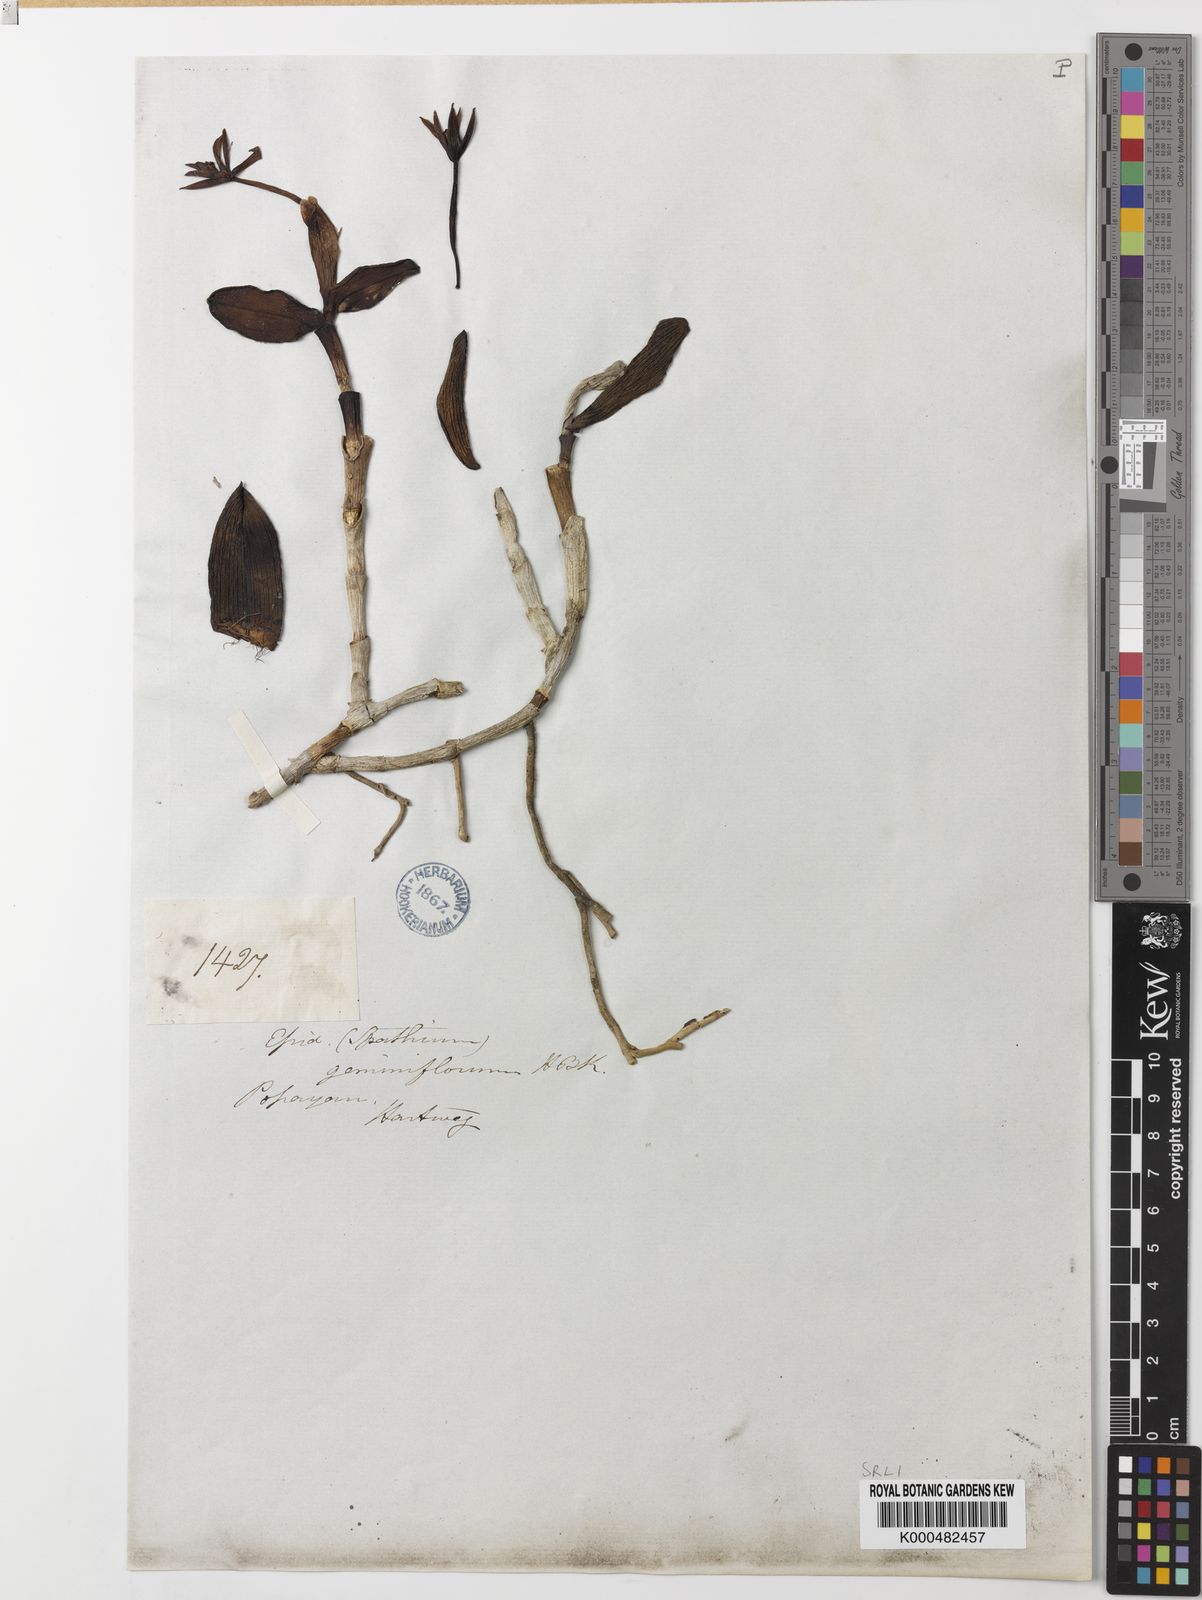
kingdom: Plantae
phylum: Tracheophyta
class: Liliopsida
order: Asparagales
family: Orchidaceae
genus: Epidendrum
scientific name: Epidendrum geminiflorum
